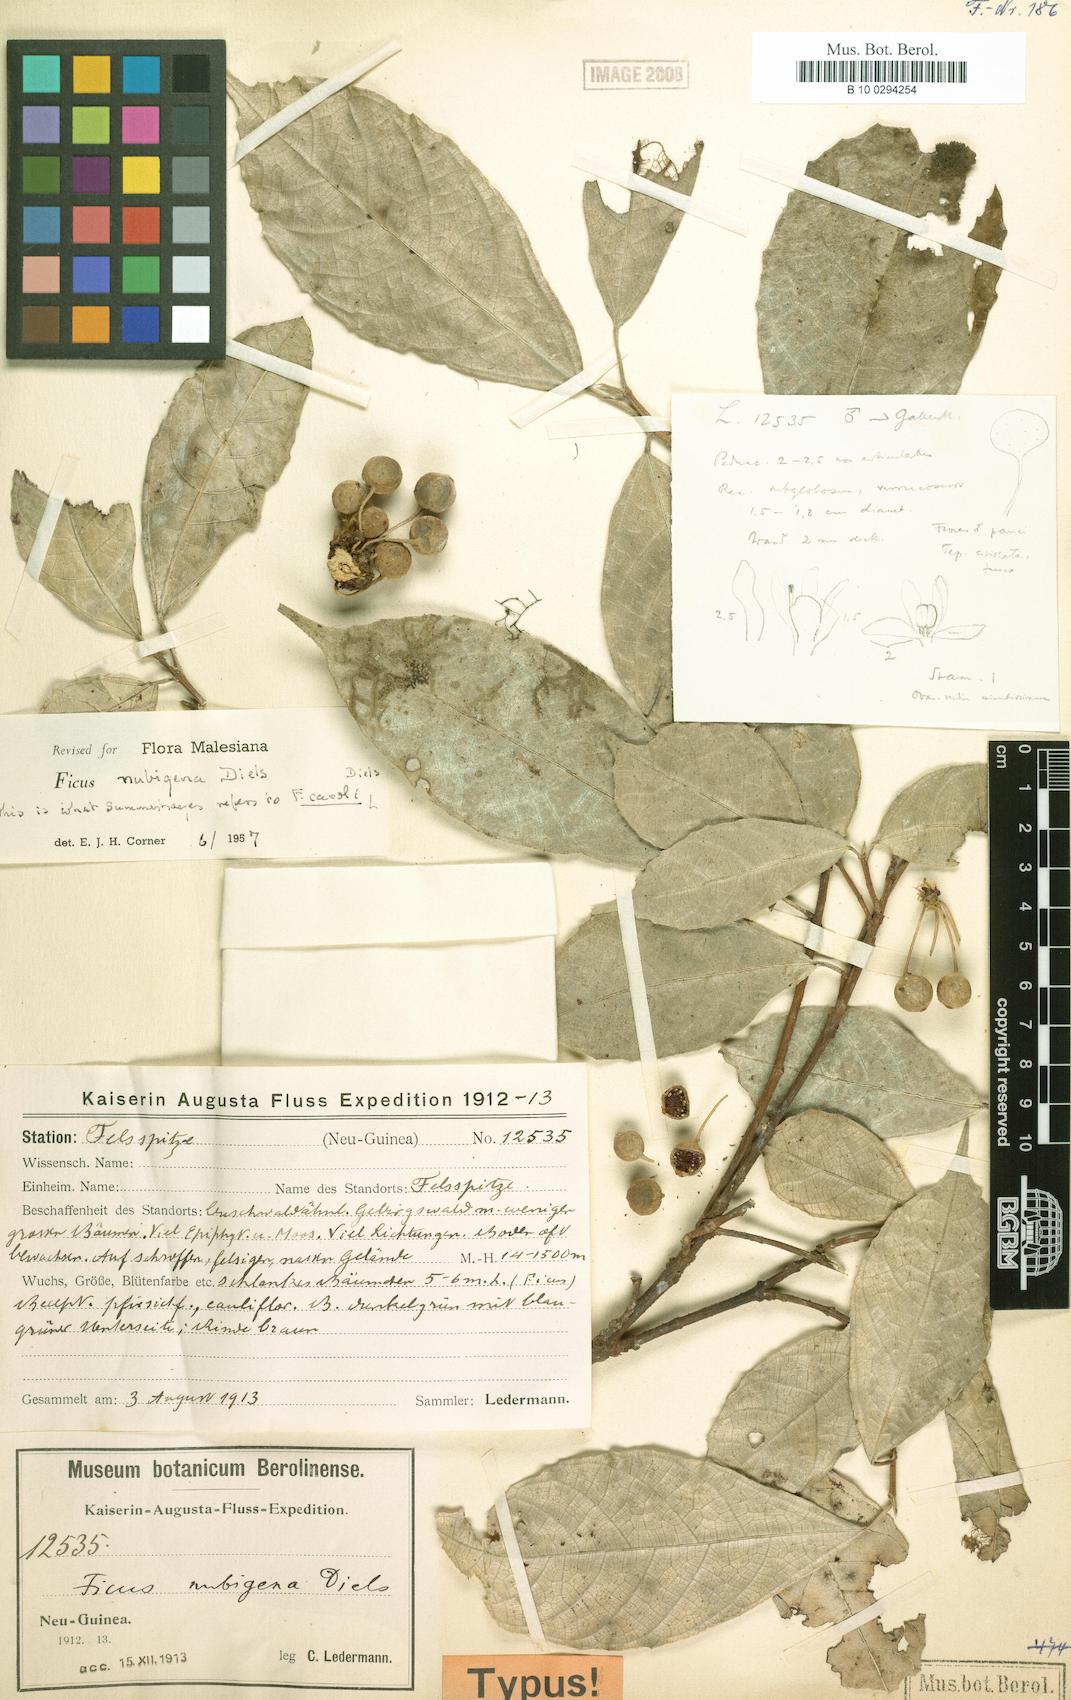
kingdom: Plantae
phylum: Tracheophyta
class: Magnoliopsida
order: Rosales
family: Moraceae
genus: Ficus
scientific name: Ficus wassa
